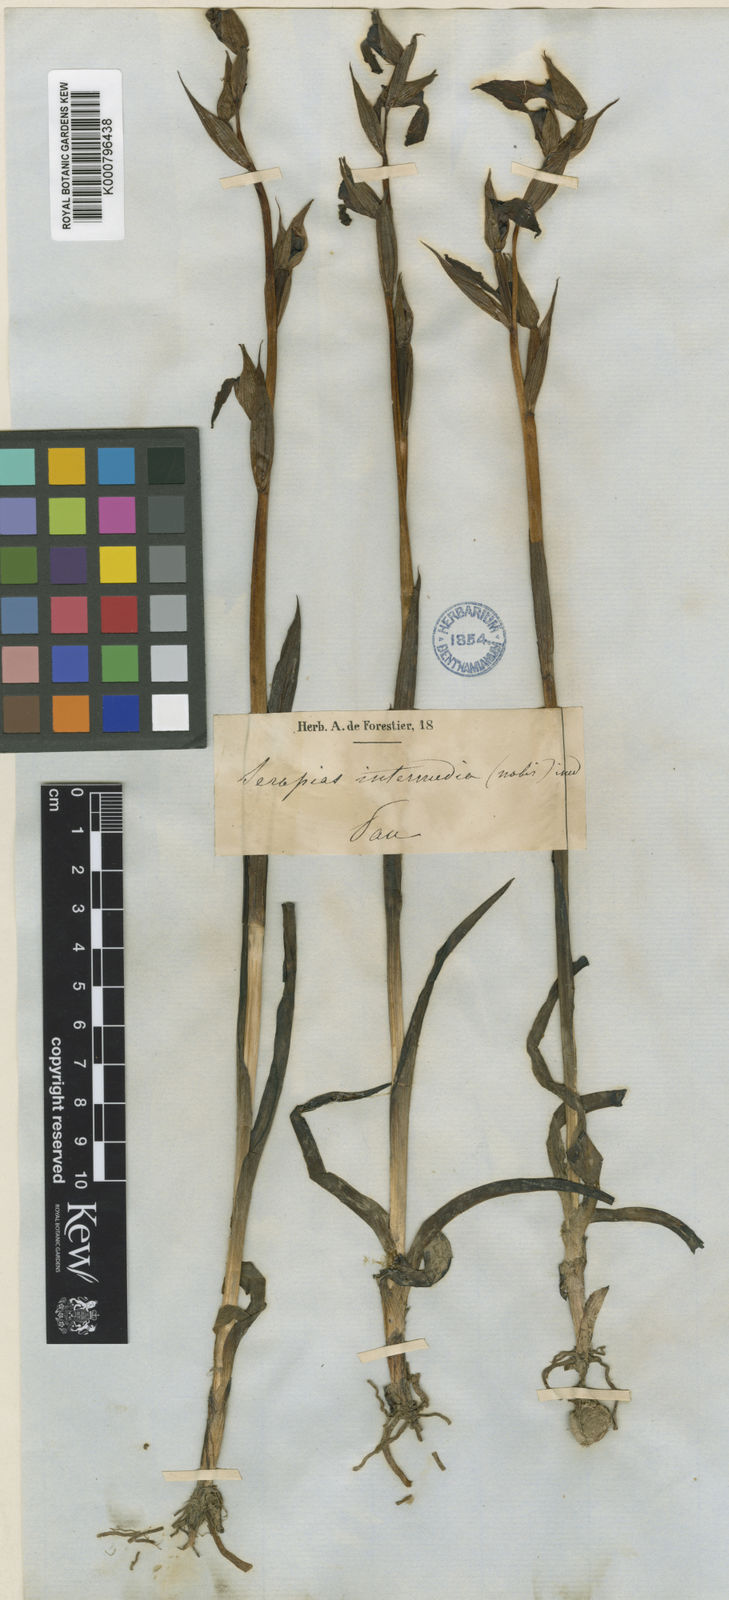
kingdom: Plantae
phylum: Tracheophyta
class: Liliopsida
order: Asparagales
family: Orchidaceae
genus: Serapias
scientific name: Serapias intermedia
